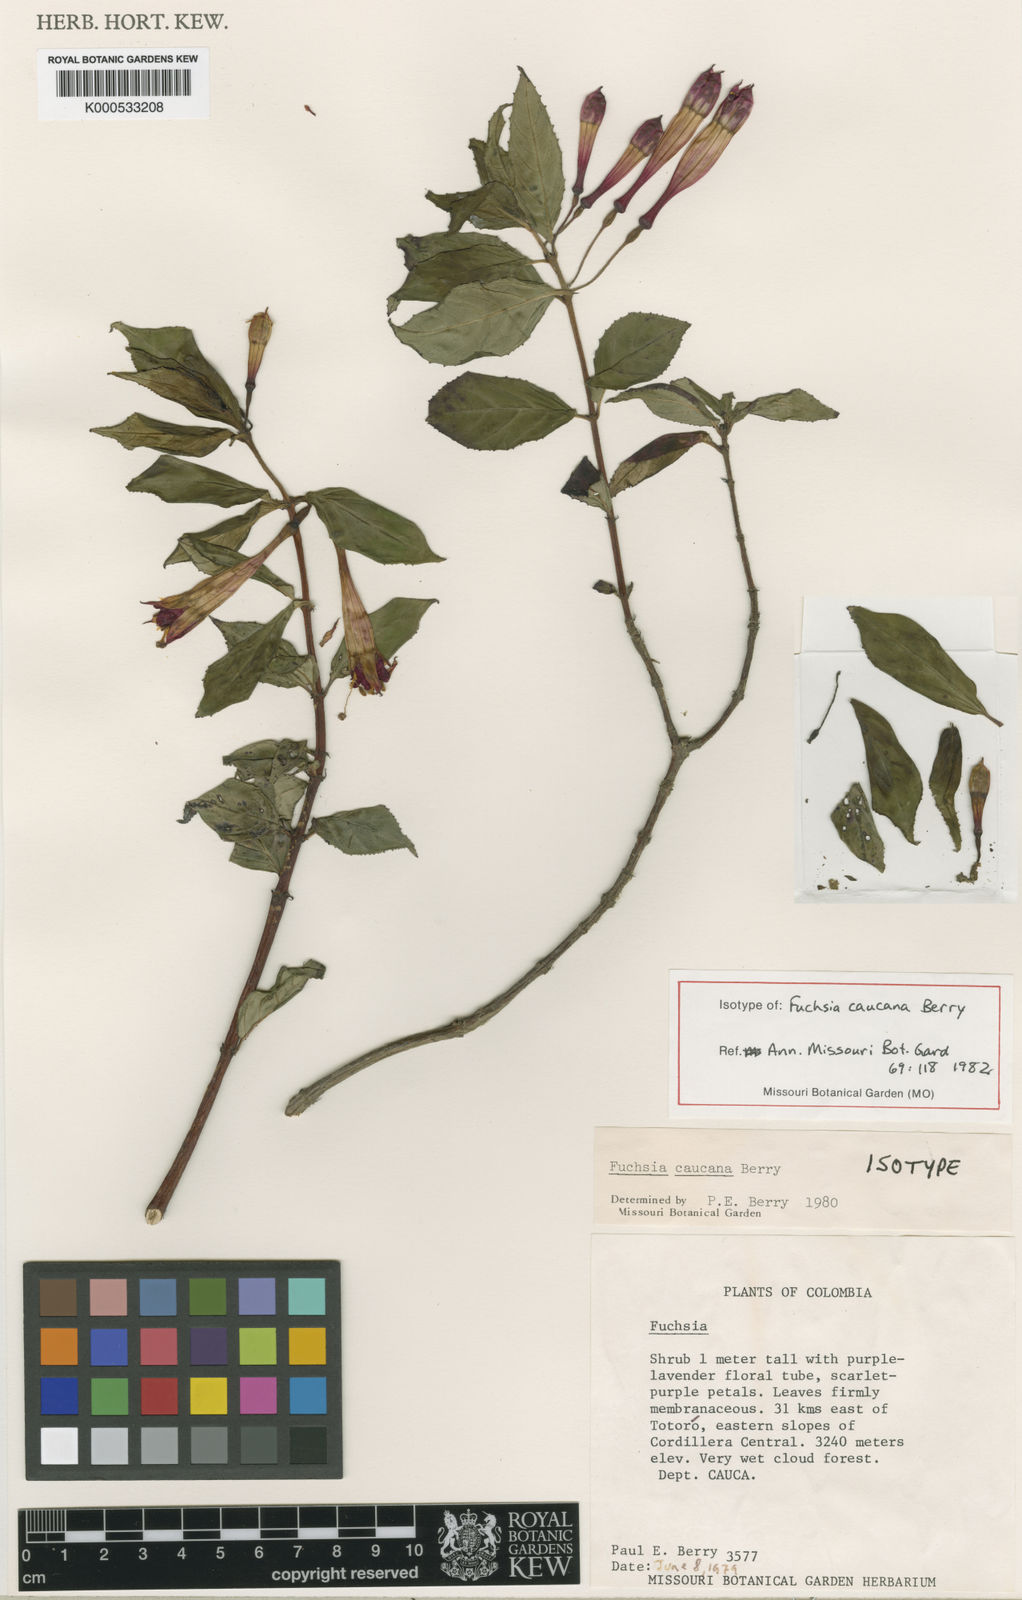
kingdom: Plantae
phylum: Tracheophyta
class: Magnoliopsida
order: Myrtales
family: Onagraceae
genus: Fuchsia
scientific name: Fuchsia caucana
